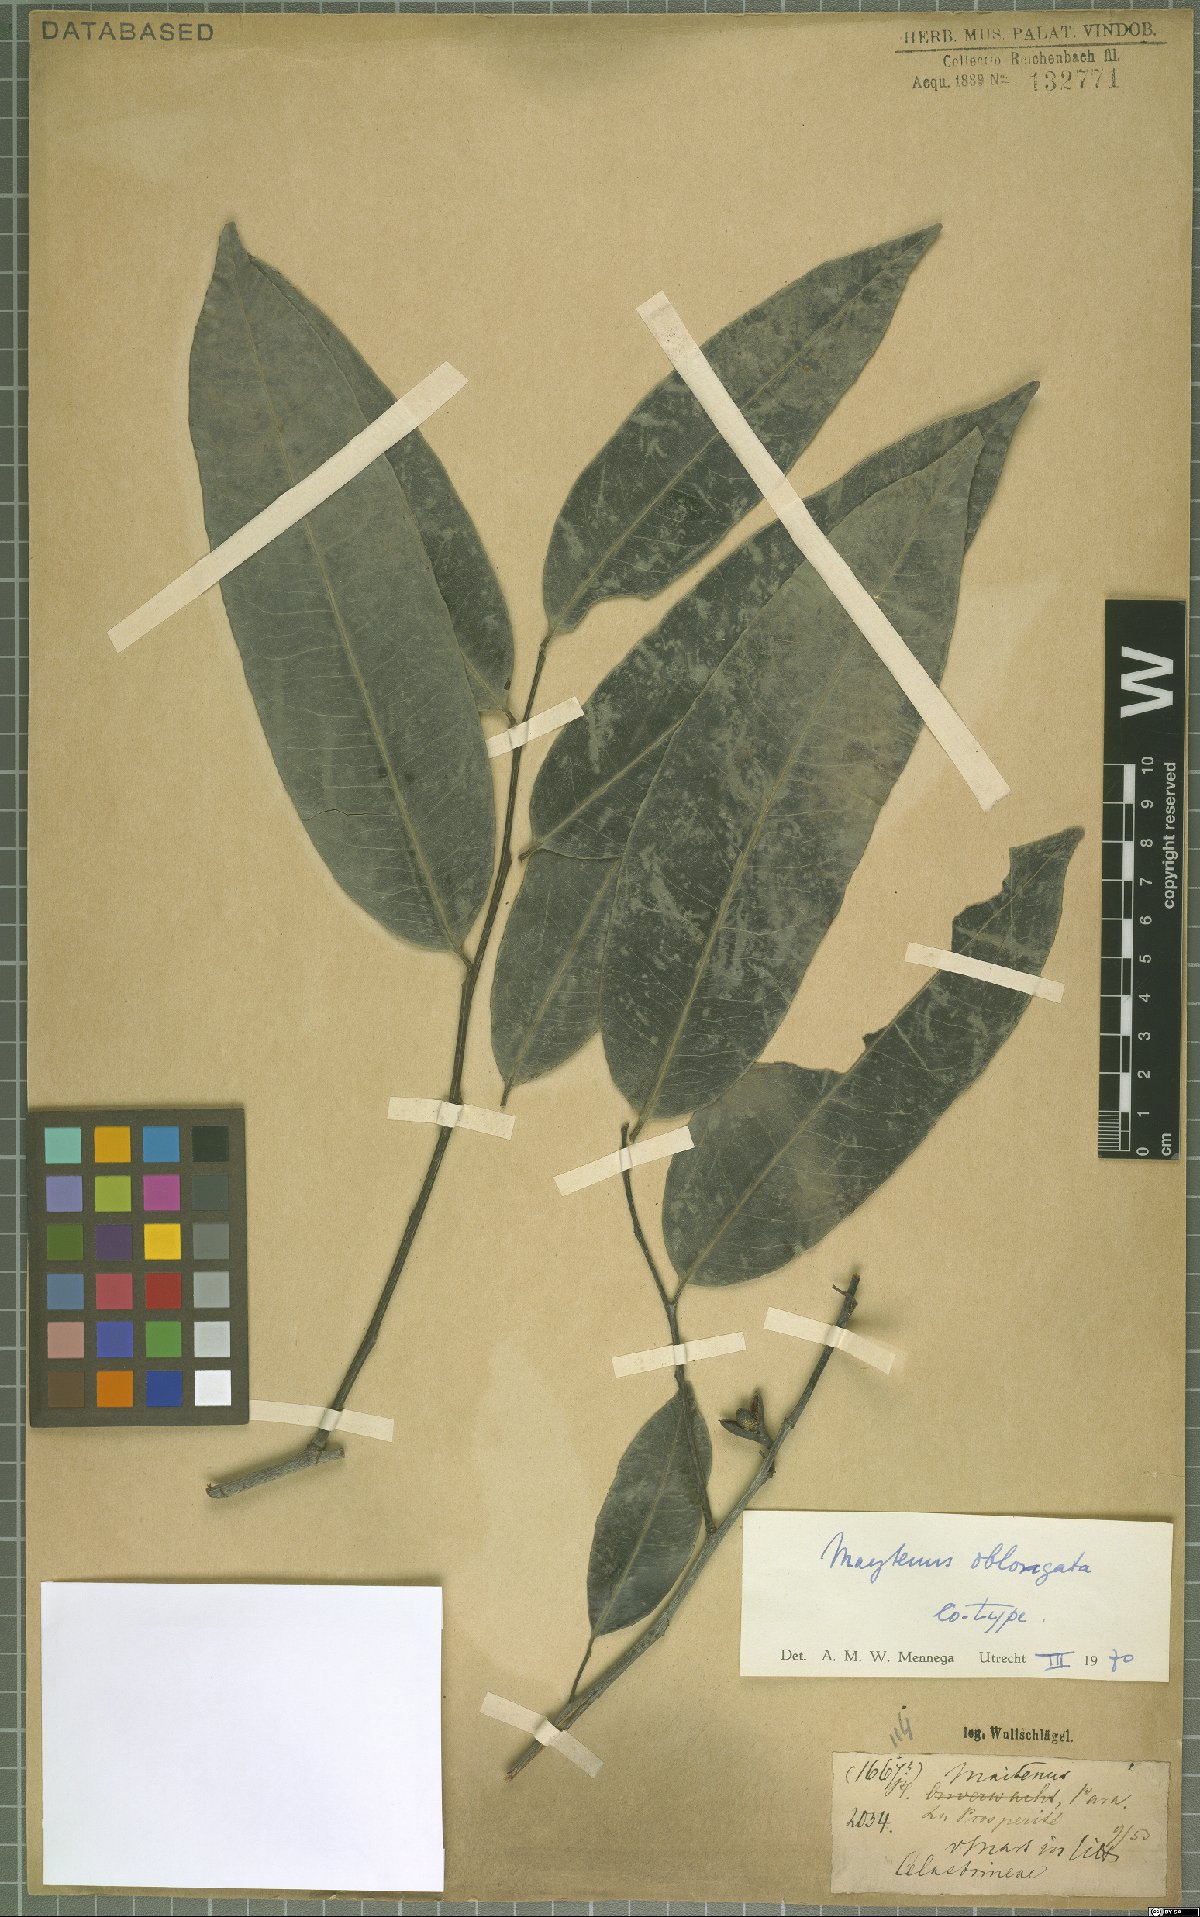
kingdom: Plantae
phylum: Tracheophyta
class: Magnoliopsida
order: Celastrales
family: Celastraceae
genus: Monteverdia
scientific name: Monteverdia oblongata
